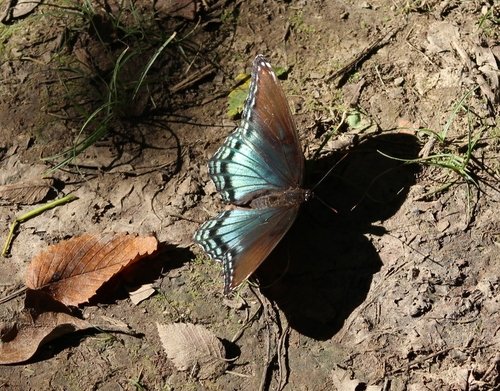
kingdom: Animalia
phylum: Arthropoda
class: Insecta
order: Lepidoptera
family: Nymphalidae
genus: Limenitis
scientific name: Limenitis astyanax
